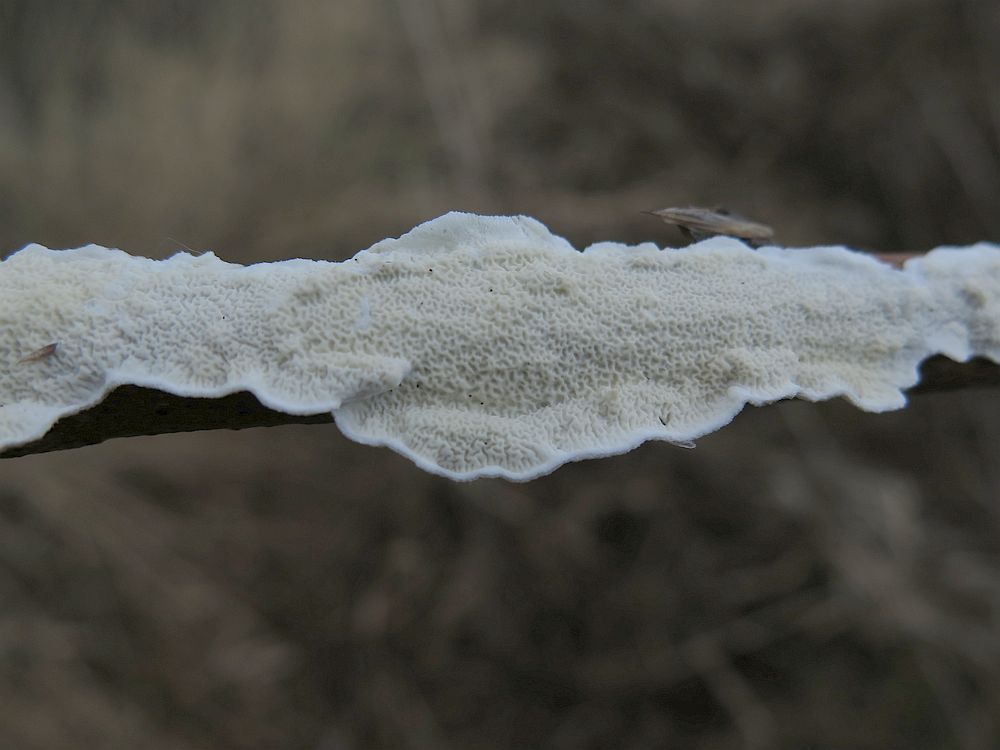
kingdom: Fungi
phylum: Basidiomycota
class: Agaricomycetes
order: Polyporales
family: Irpicaceae
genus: Byssomerulius
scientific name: Byssomerulius corium
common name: læder-åresvamp
